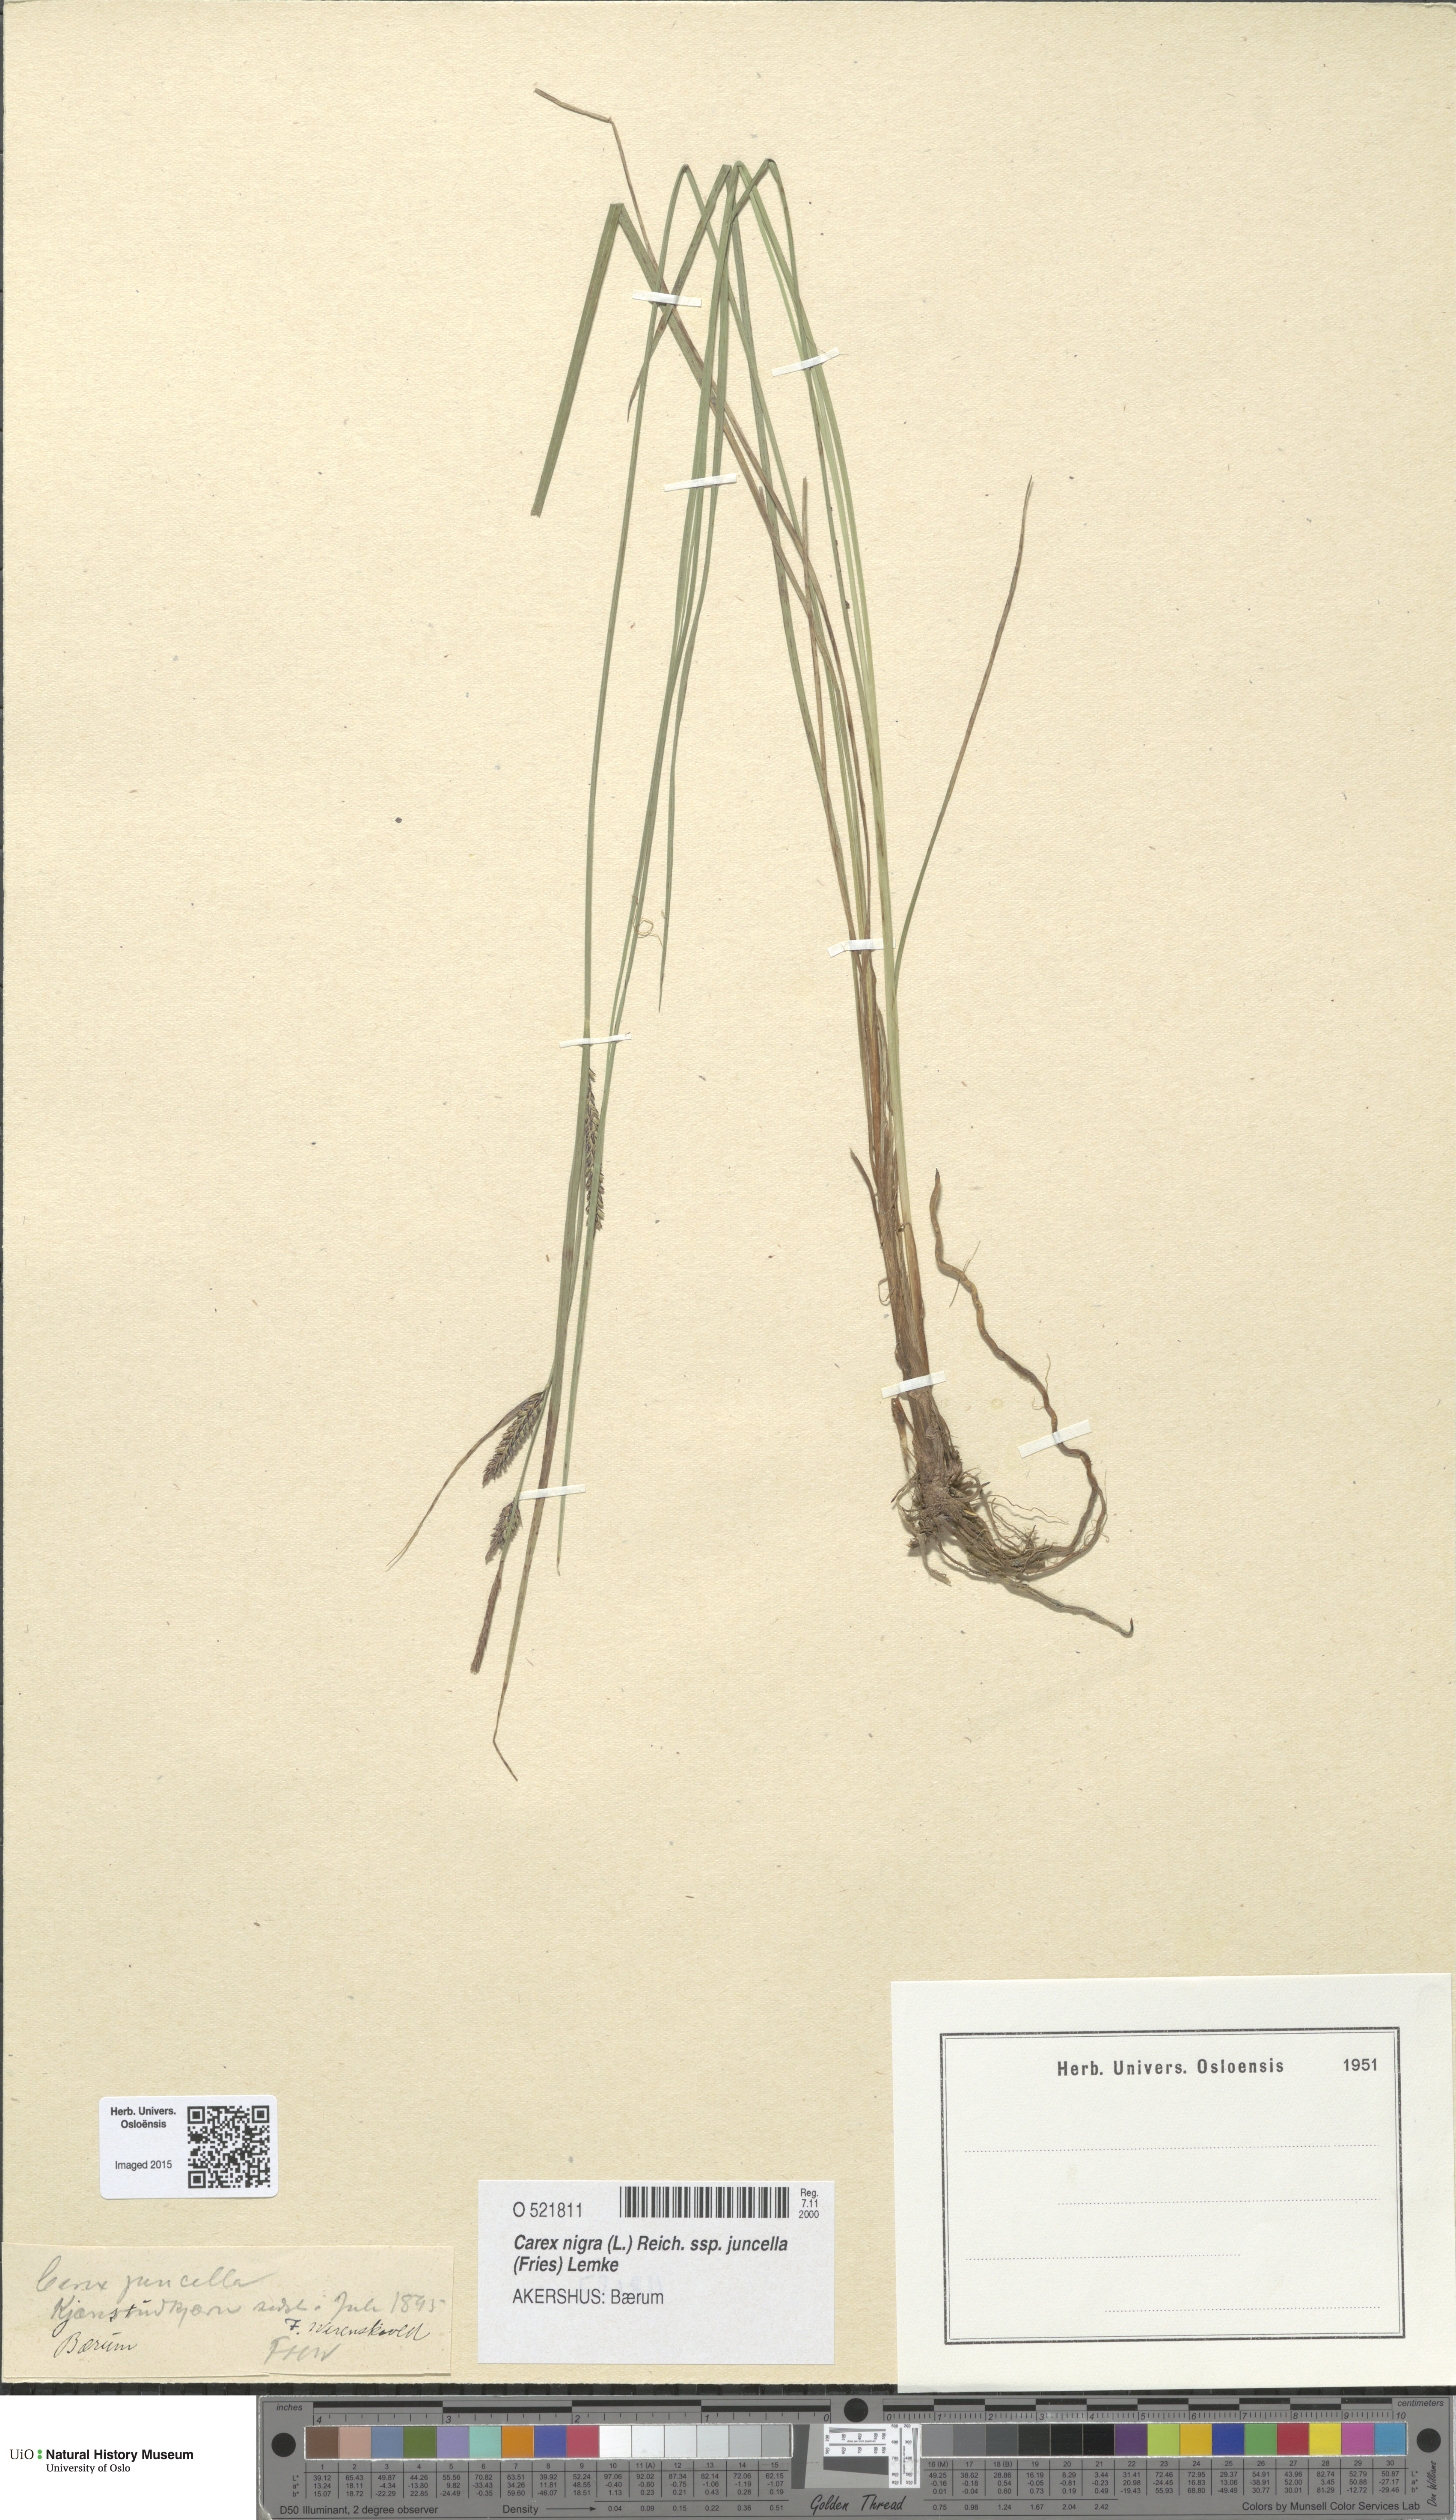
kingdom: Plantae
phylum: Tracheophyta
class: Liliopsida
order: Poales
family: Cyperaceae
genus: Carex
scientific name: Carex nigra
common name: Common sedge
